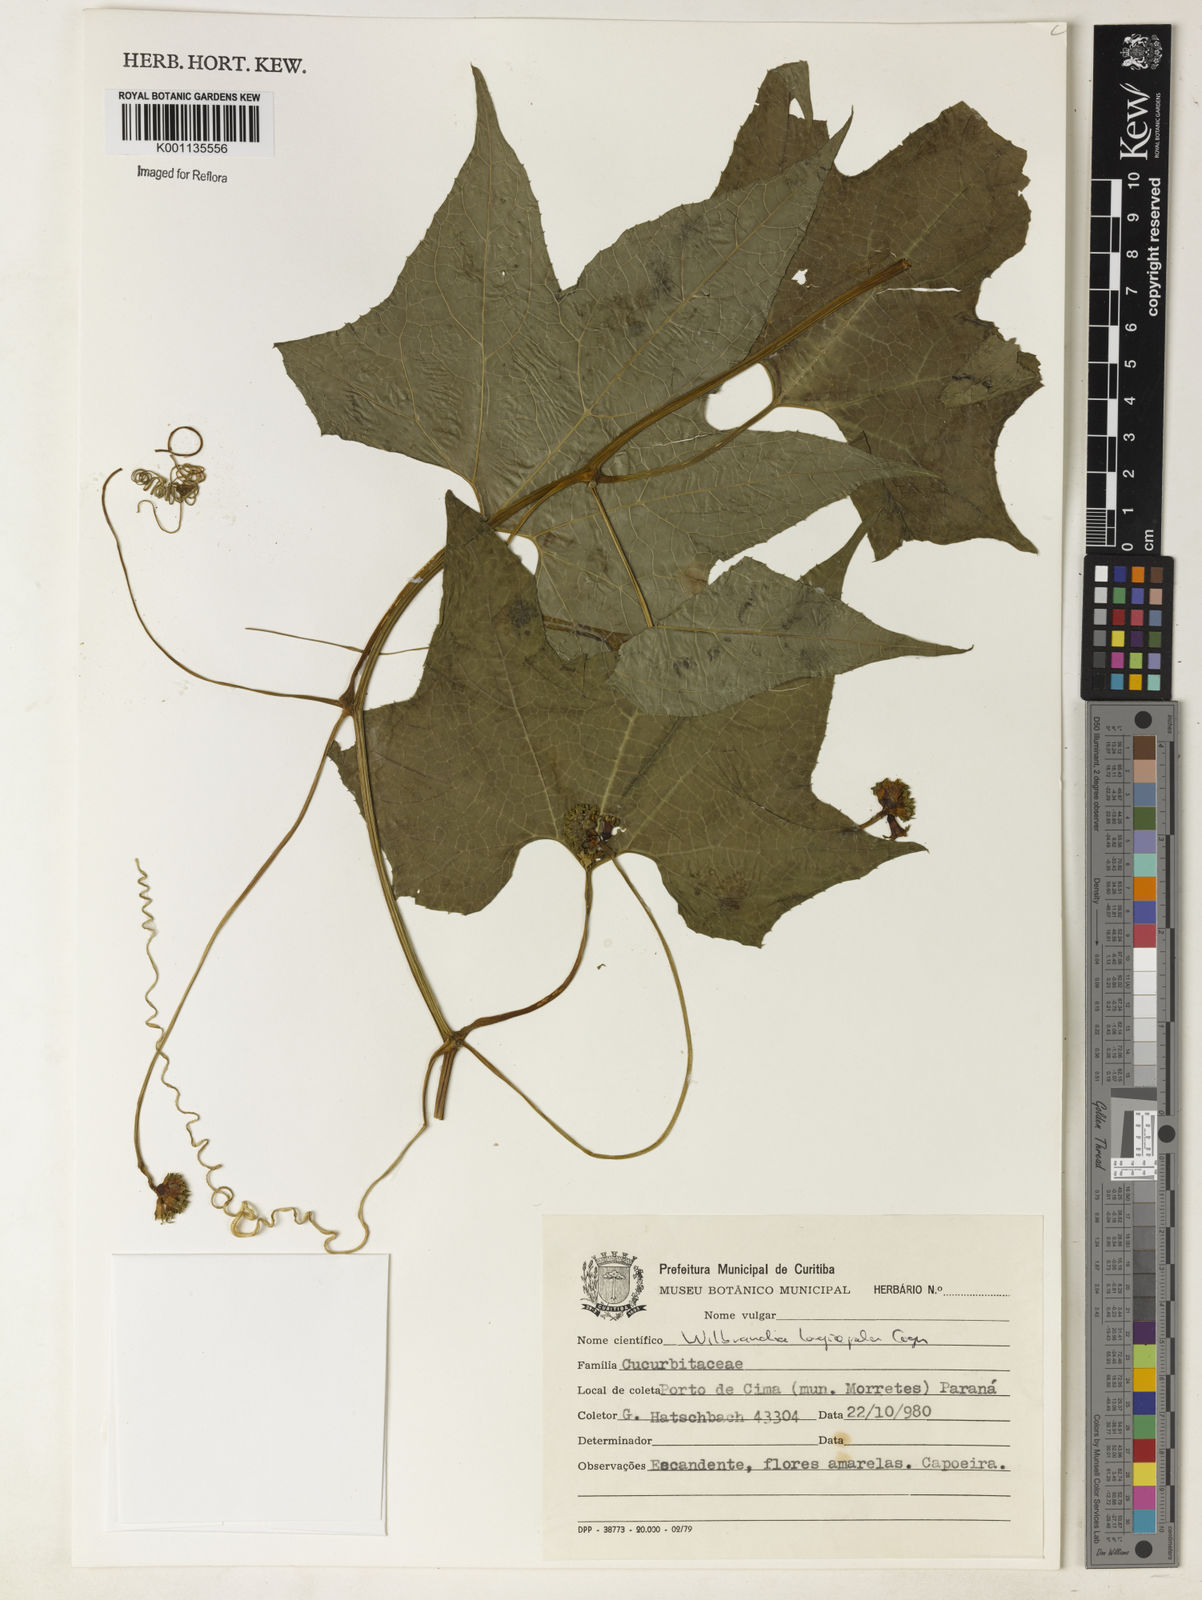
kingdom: Plantae
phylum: Tracheophyta
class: Magnoliopsida
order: Cucurbitales
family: Cucurbitaceae
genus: Wilbrandia
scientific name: Wilbrandia longisepala
